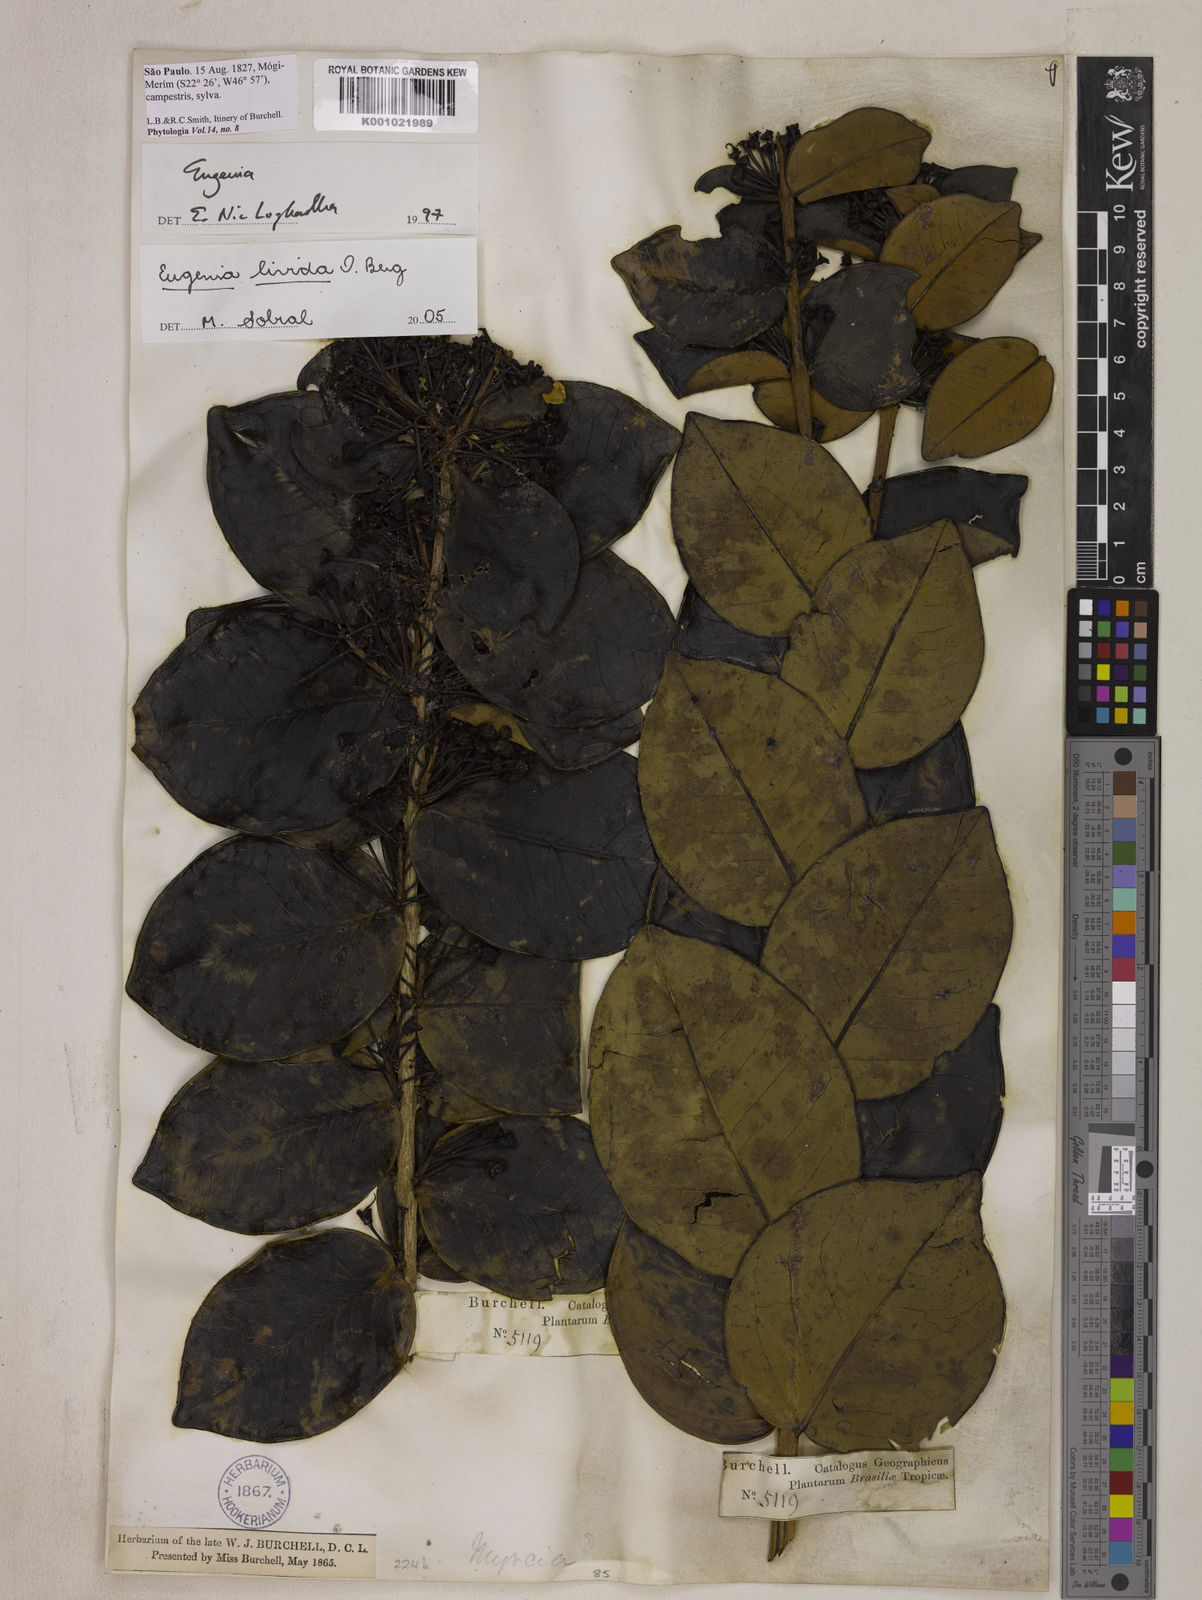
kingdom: Plantae
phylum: Tracheophyta
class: Magnoliopsida
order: Myrtales
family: Myrtaceae
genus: Eugenia
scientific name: Eugenia livida
